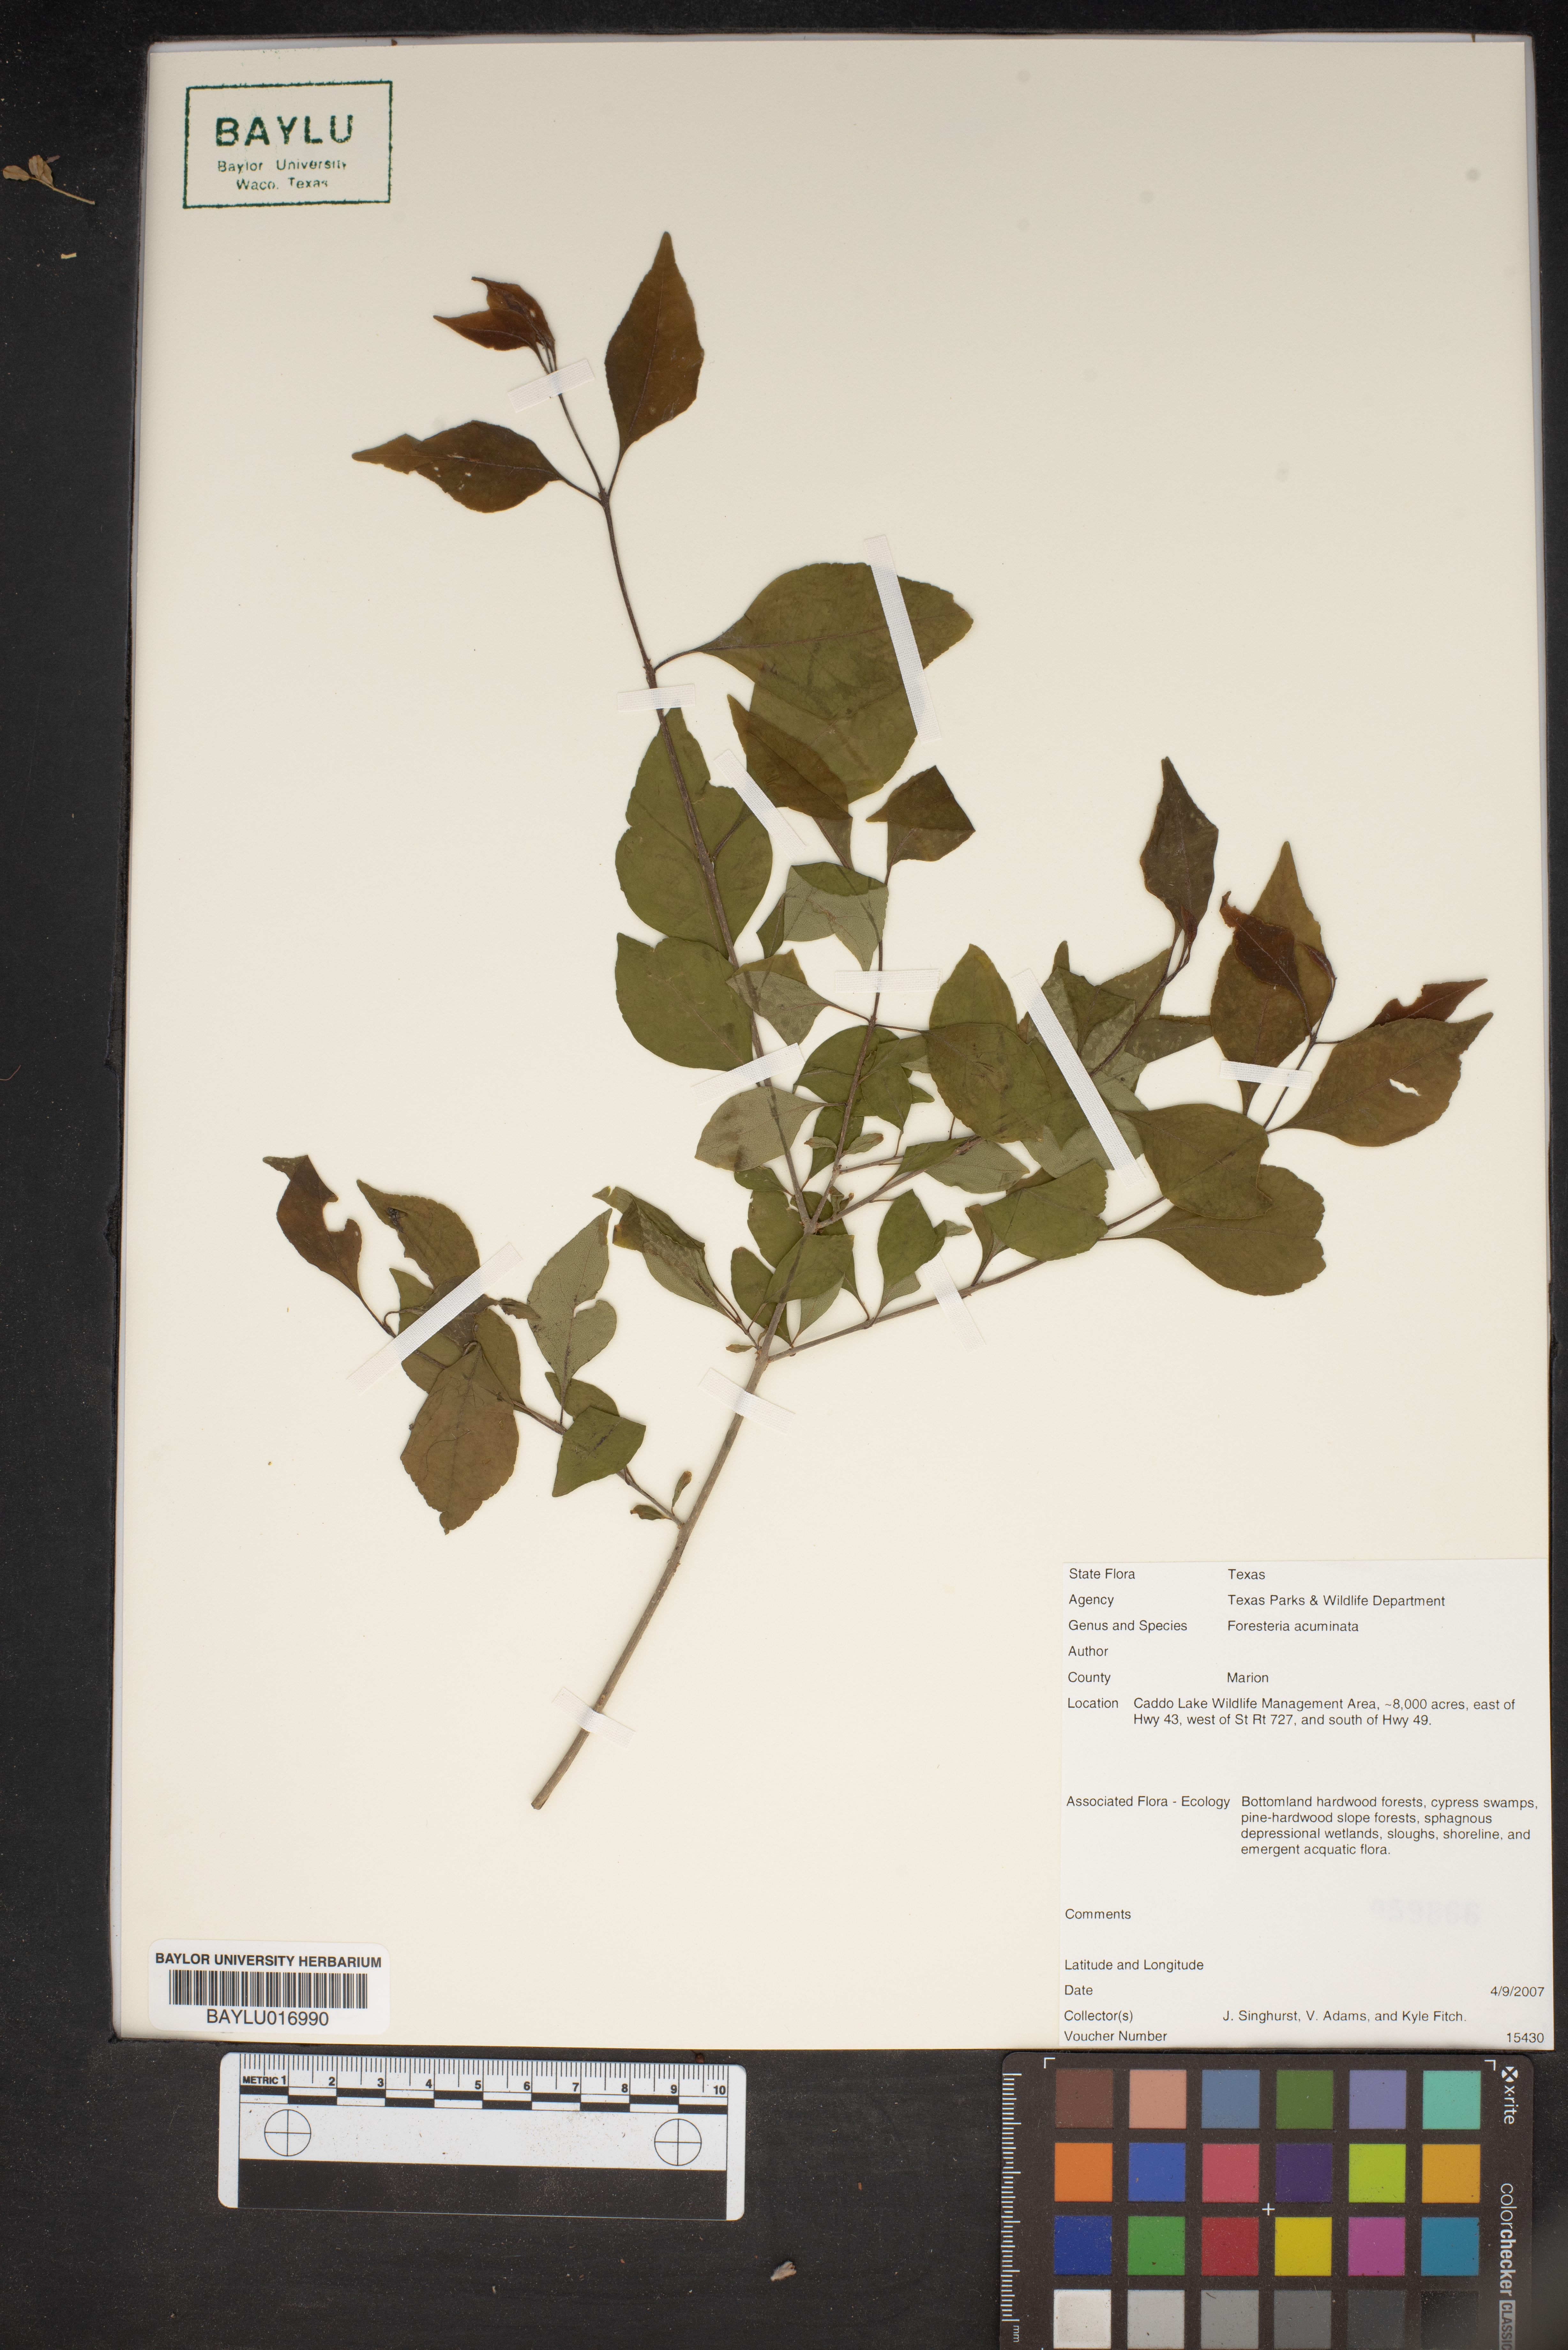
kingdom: Plantae
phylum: Tracheophyta
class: Magnoliopsida
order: Lamiales
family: Oleaceae
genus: Forestiera
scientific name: Forestiera acuminata
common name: Swamp-privet
